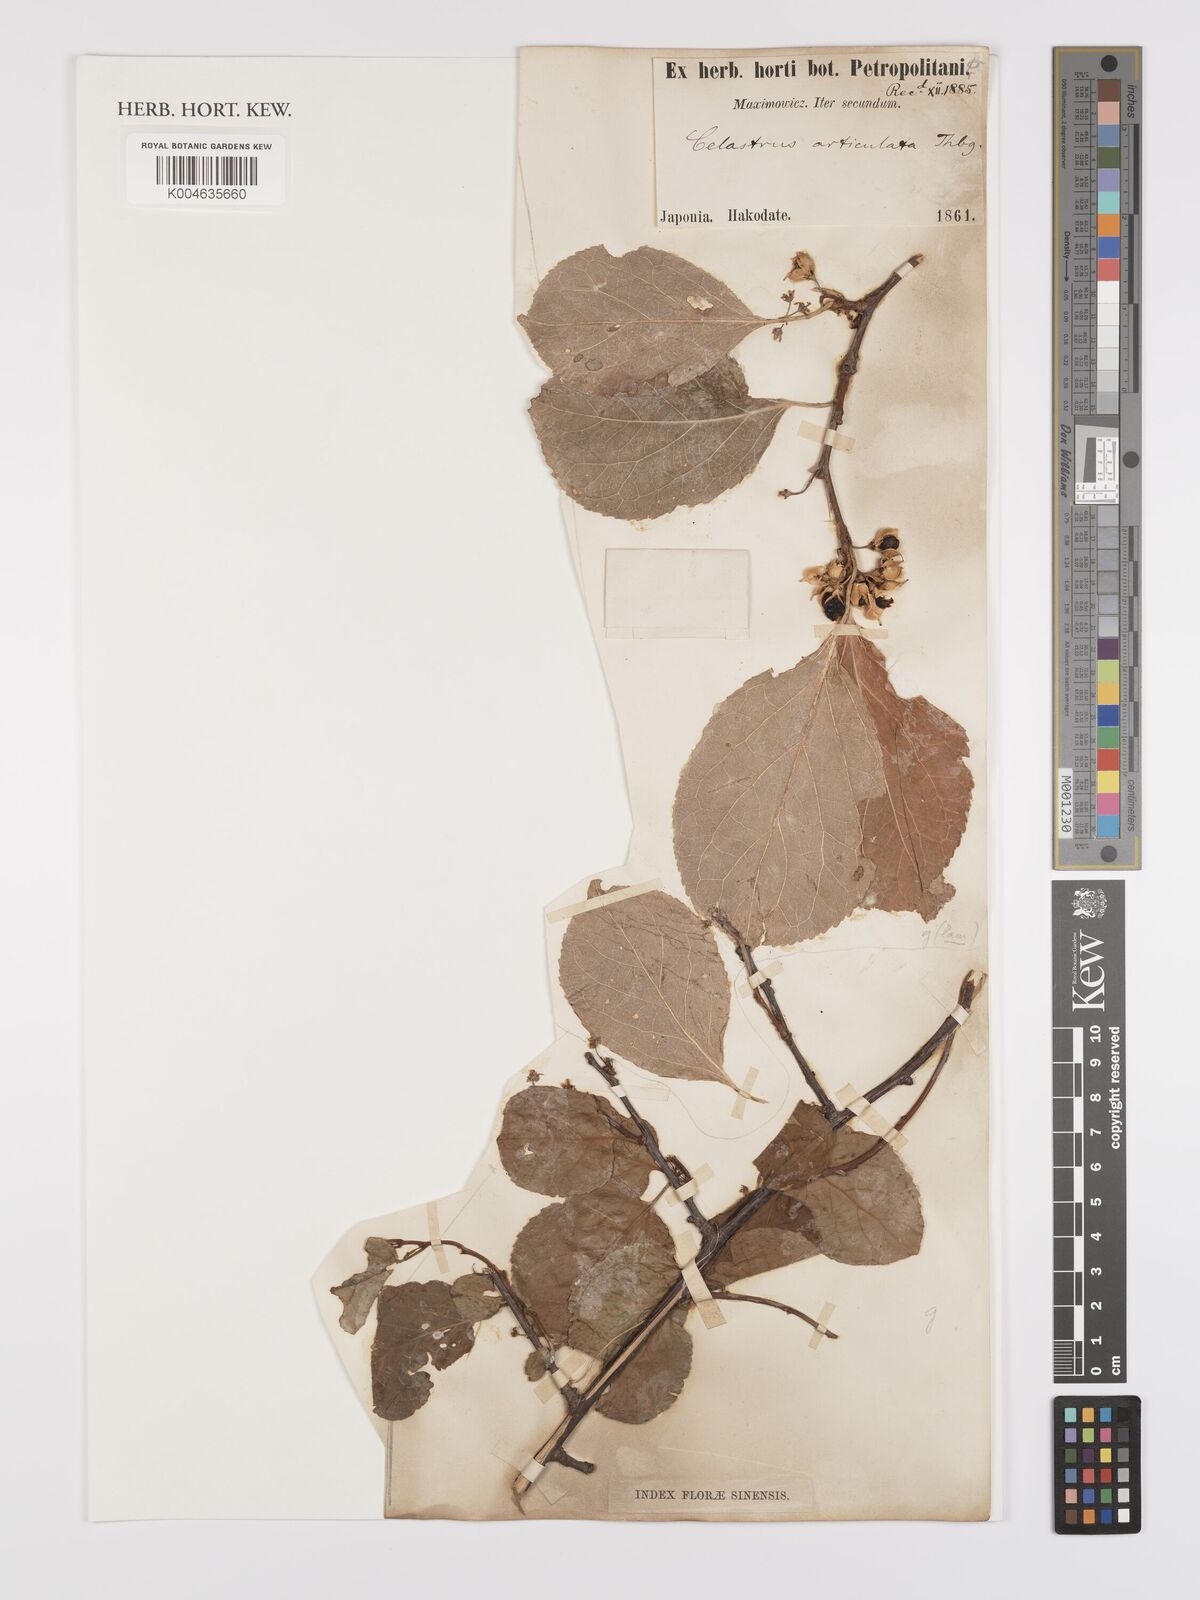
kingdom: Plantae
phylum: Tracheophyta
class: Magnoliopsida
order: Celastrales
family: Celastraceae
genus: Celastrus
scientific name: Celastrus orbiculatus
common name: Oriental bittersweet
